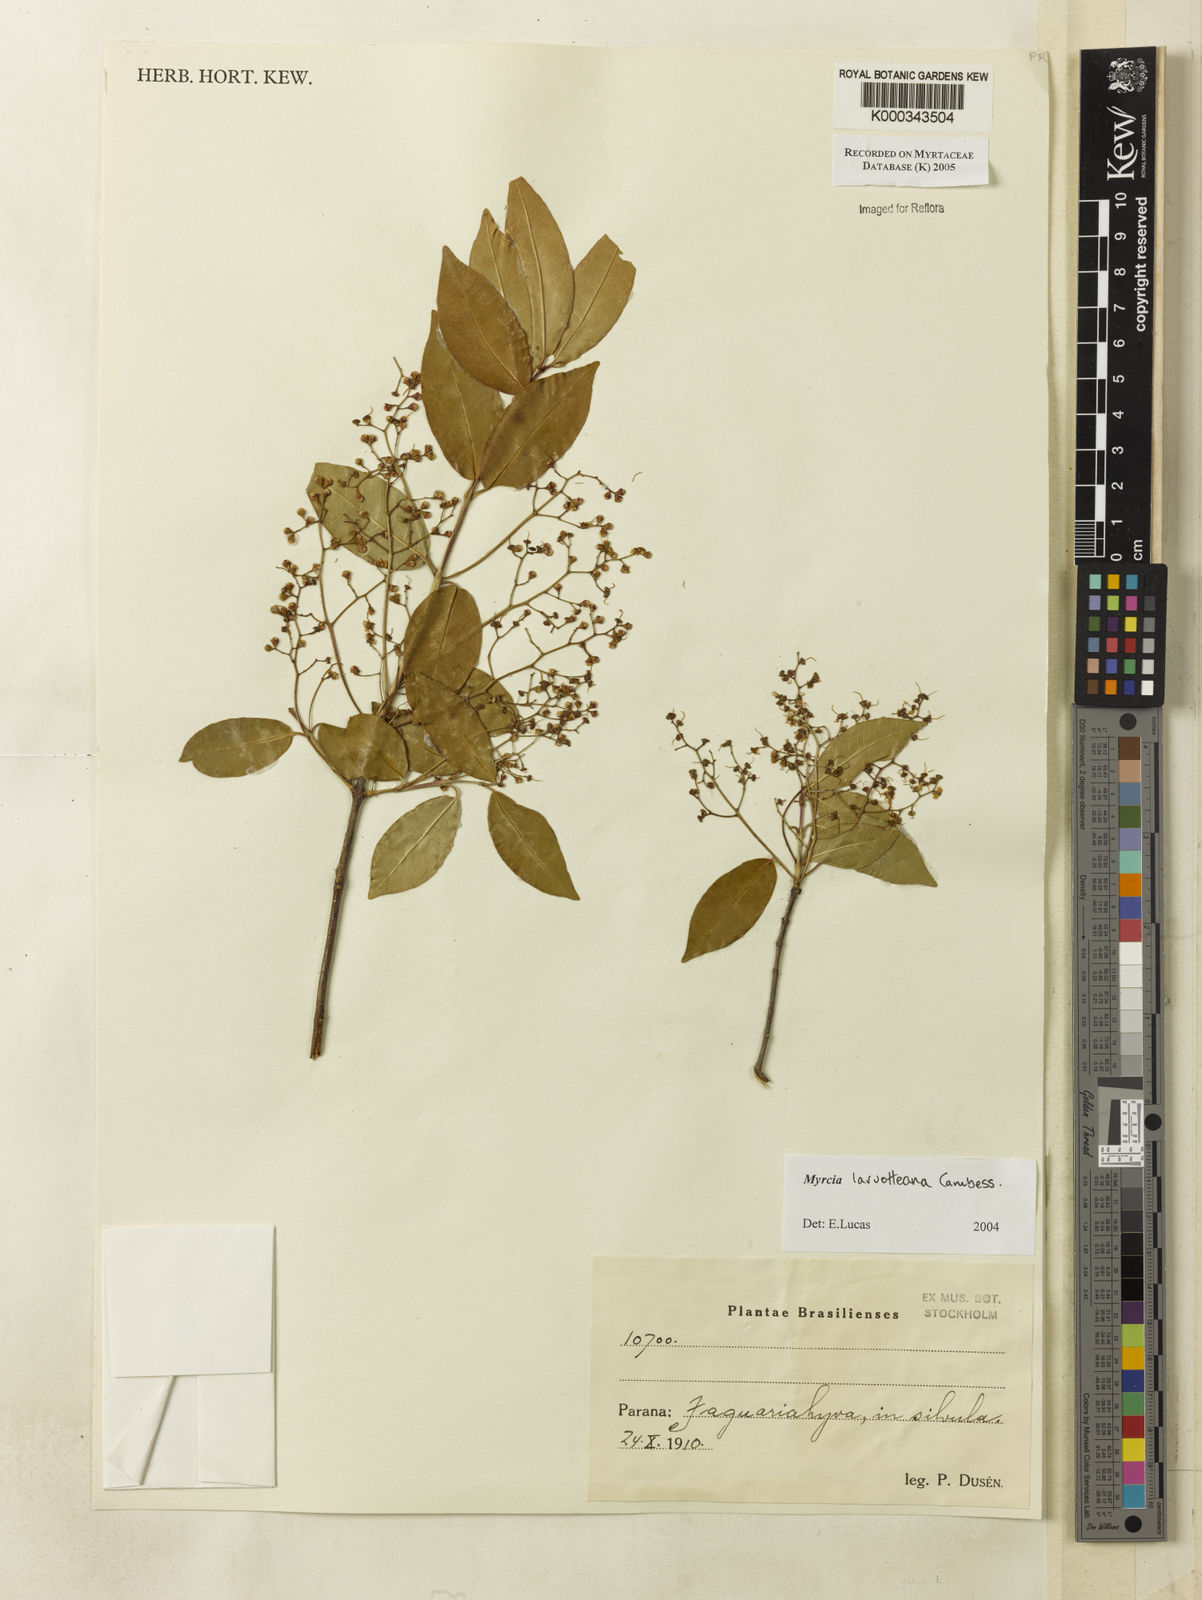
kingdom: Plantae
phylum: Tracheophyta
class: Magnoliopsida
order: Myrtales
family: Myrtaceae
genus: Myrcia
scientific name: Myrcia laruotteana
